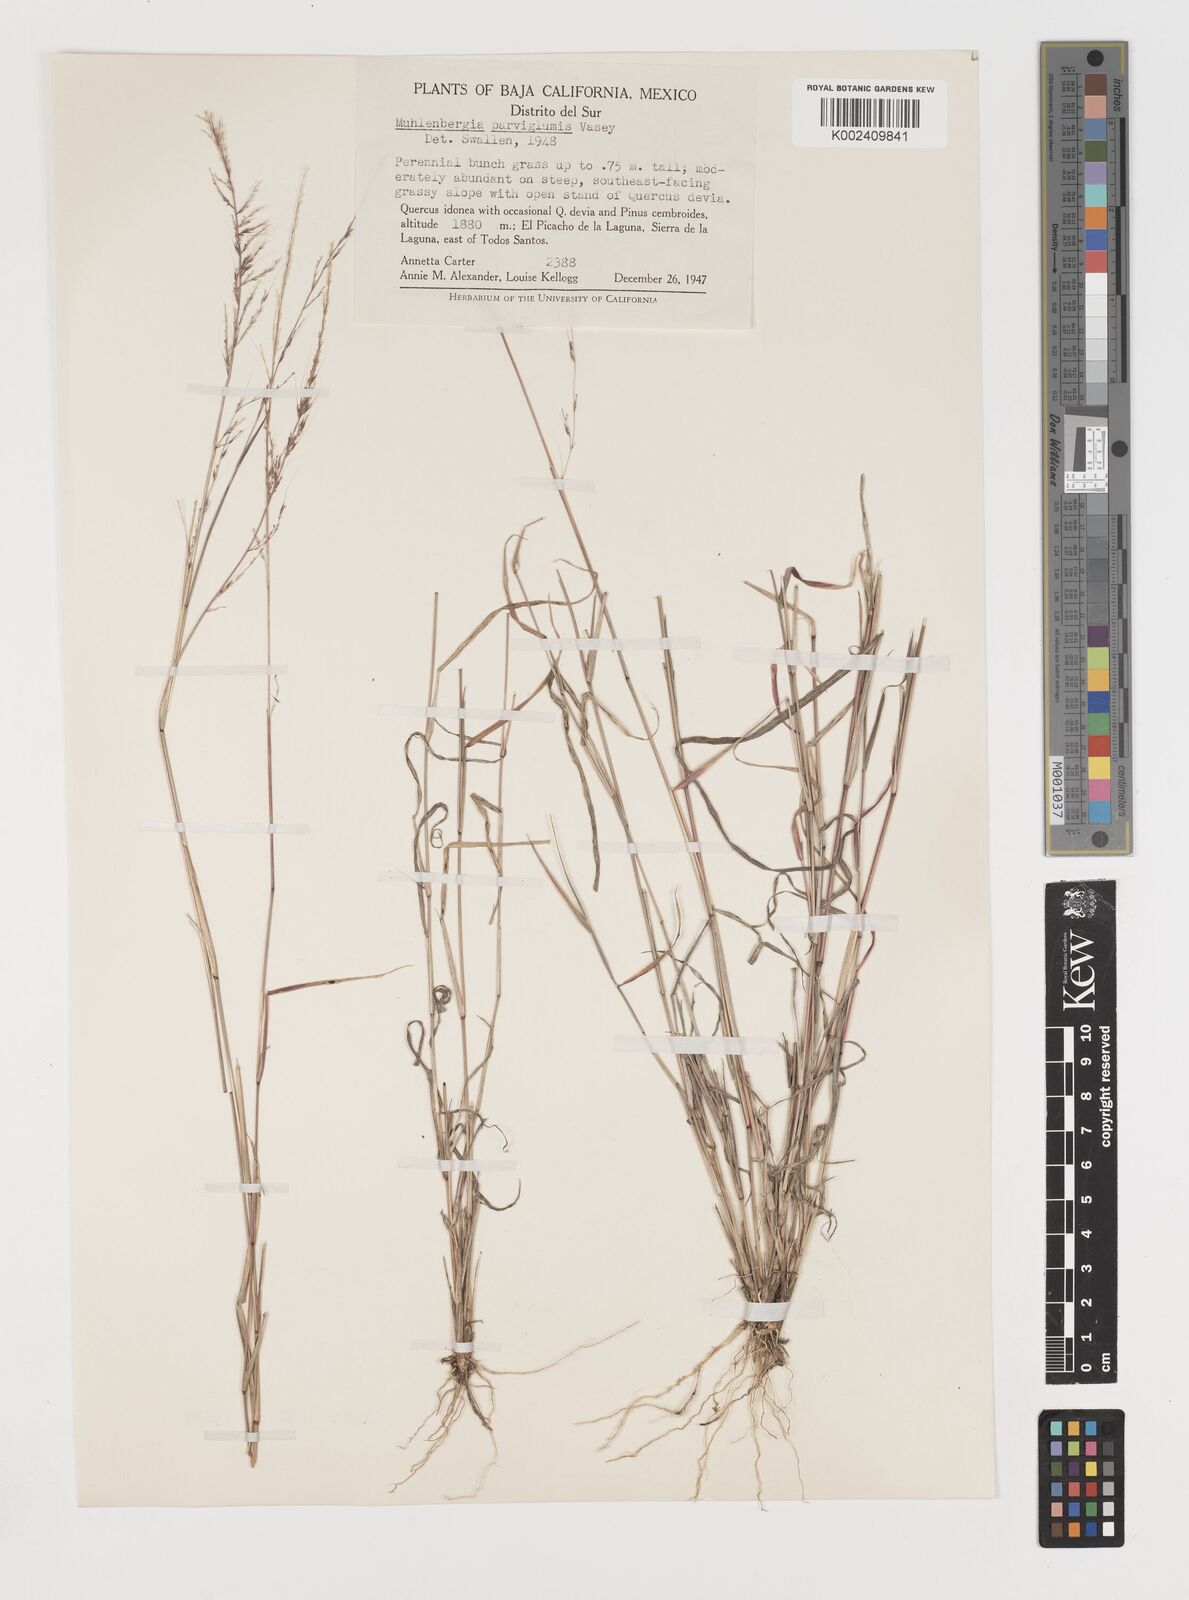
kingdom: Plantae
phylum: Tracheophyta
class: Liliopsida
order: Poales
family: Poaceae
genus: Muhlenbergia
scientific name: Muhlenbergia spiciformis
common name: Longawn muhly
